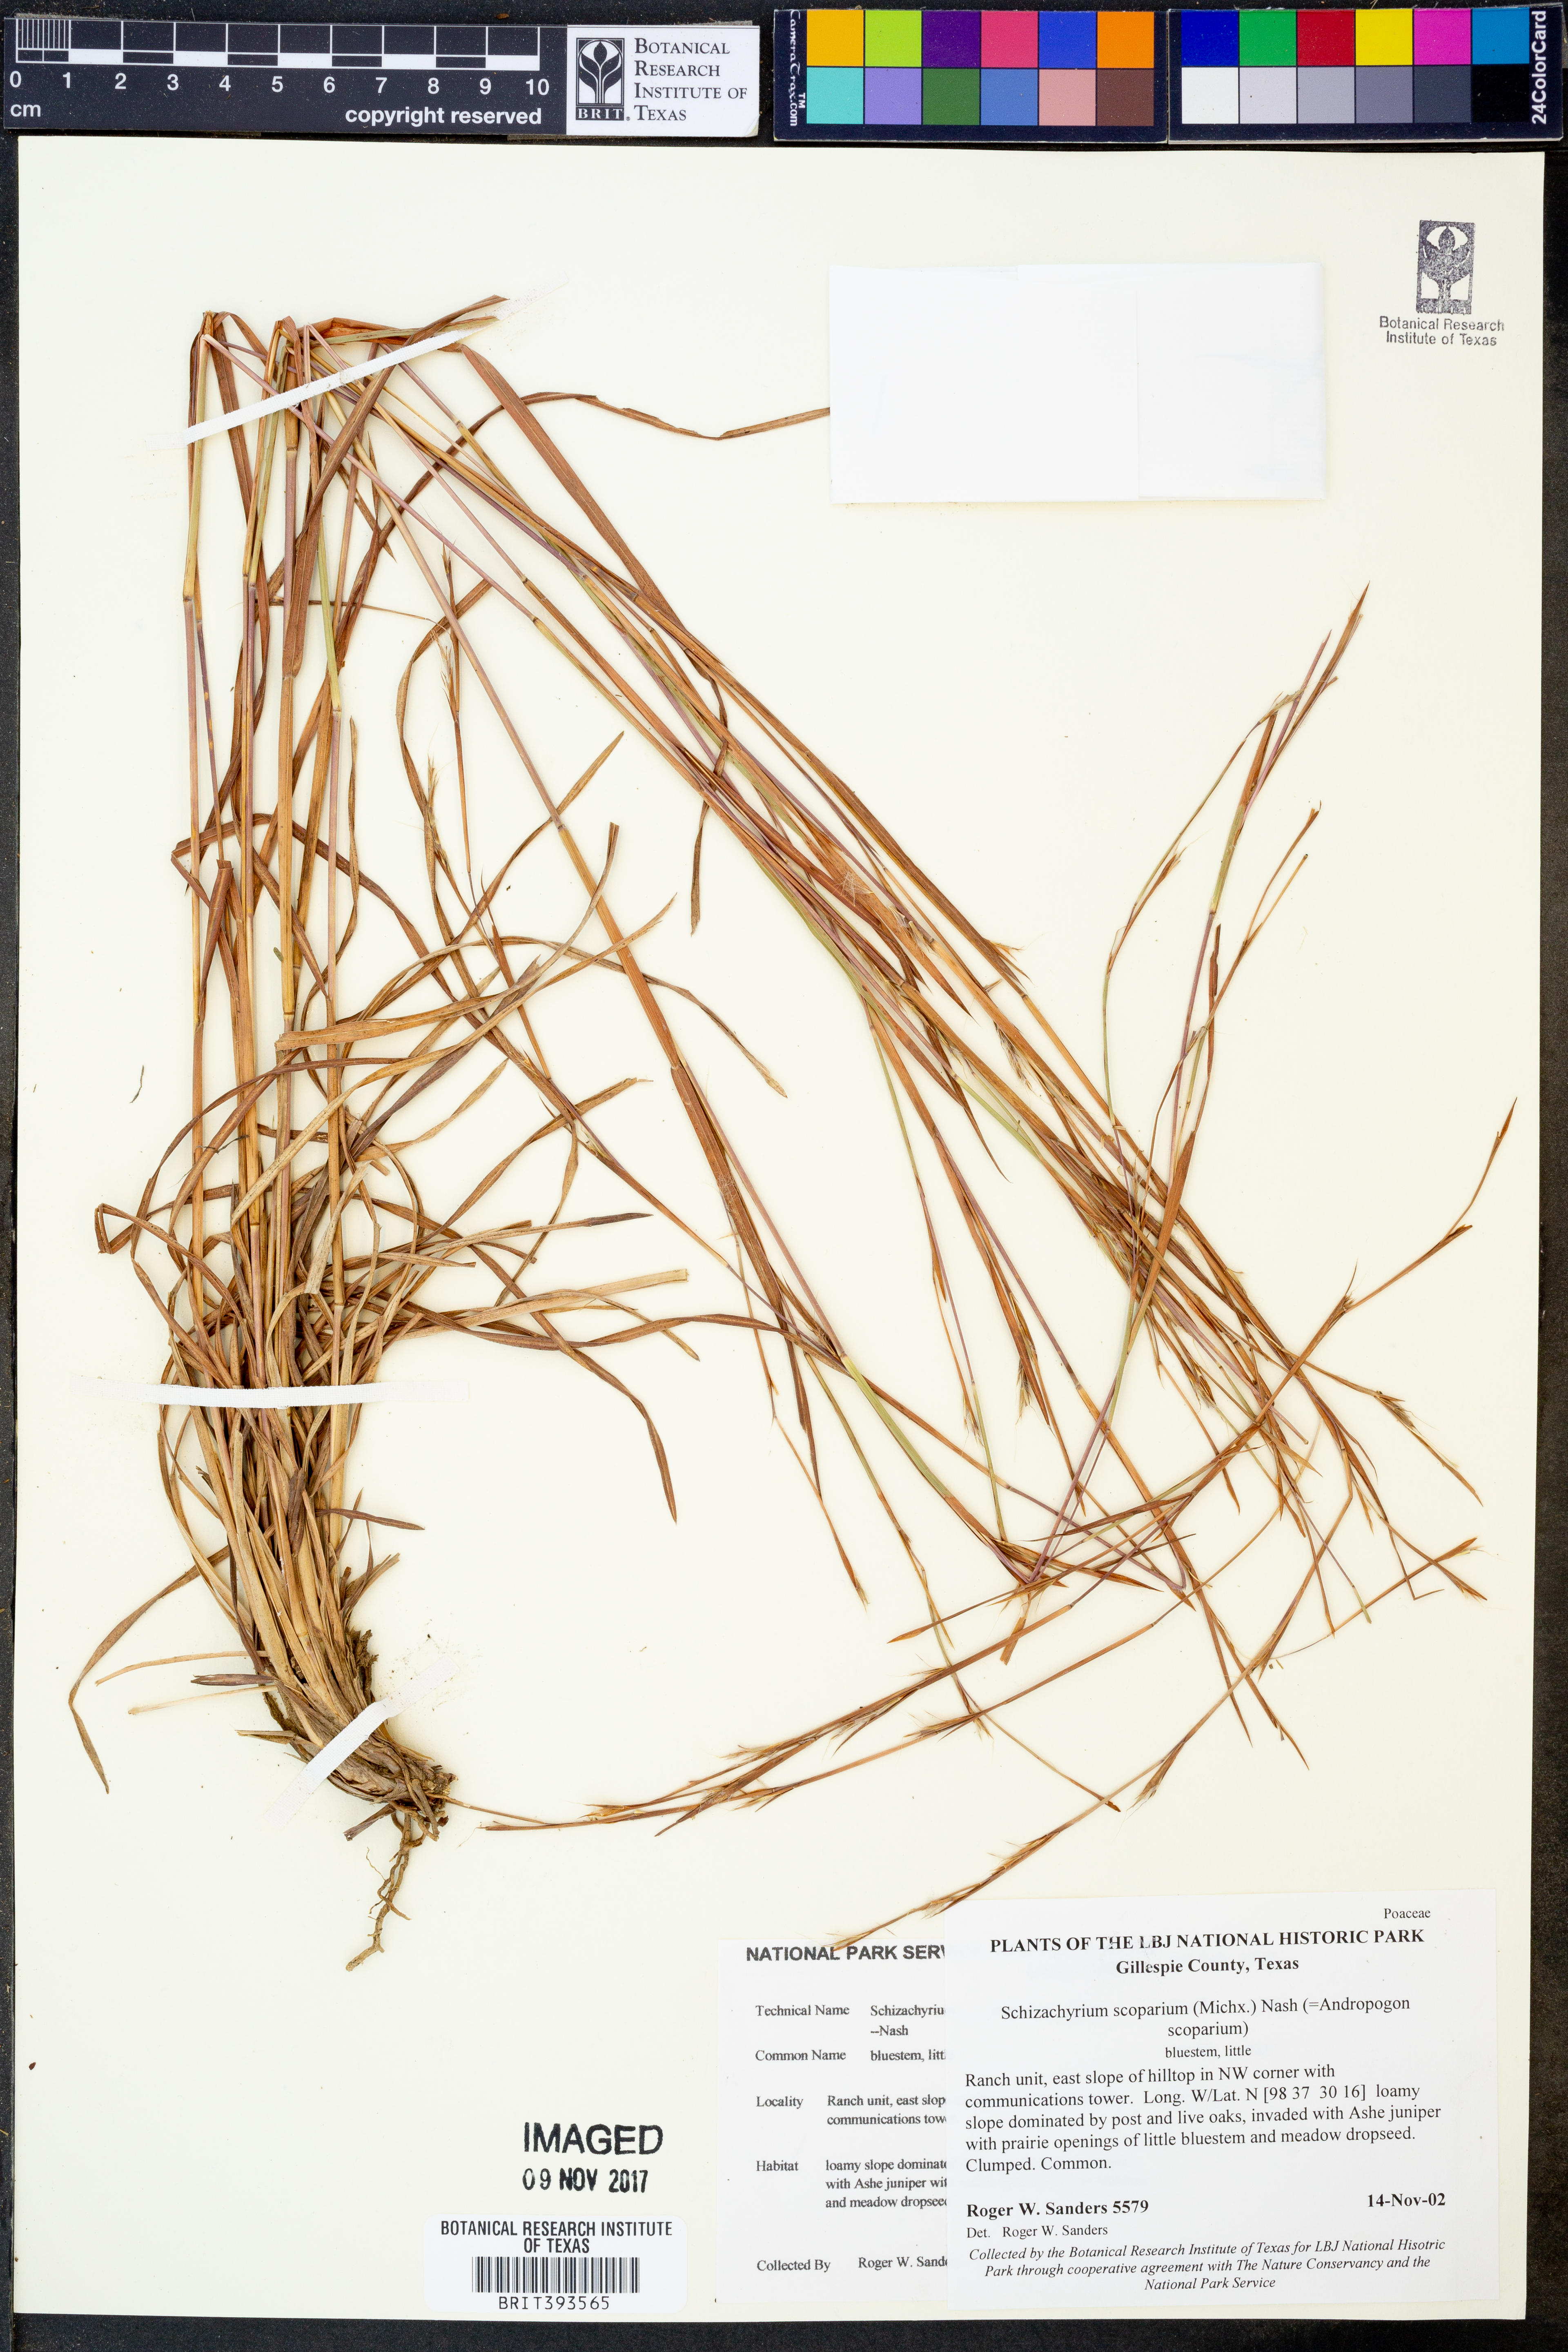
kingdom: Plantae
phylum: Tracheophyta
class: Liliopsida
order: Poales
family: Poaceae
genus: Schizachyrium
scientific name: Schizachyrium scoparium
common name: Little bluestem
